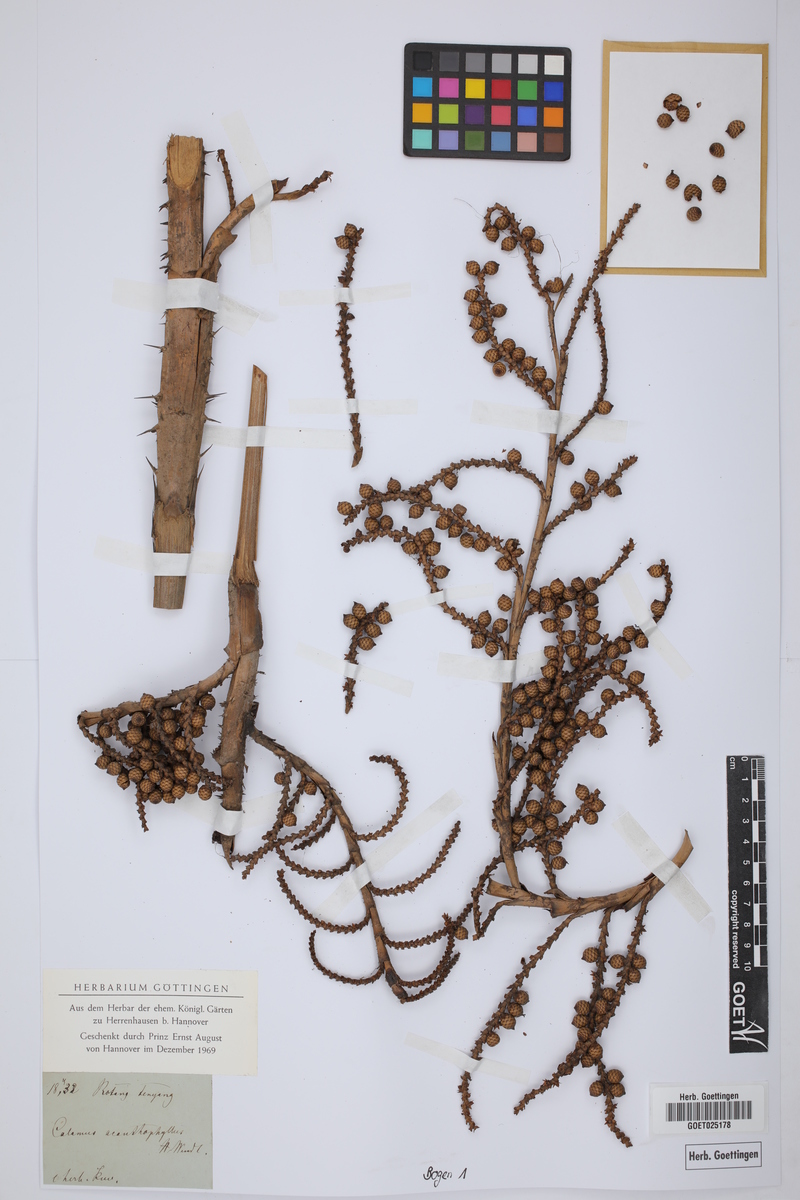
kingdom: Plantae
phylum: Tracheophyta
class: Liliopsida
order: Arecales
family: Arecaceae
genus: Calamus
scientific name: Calamus acanthophyllus
